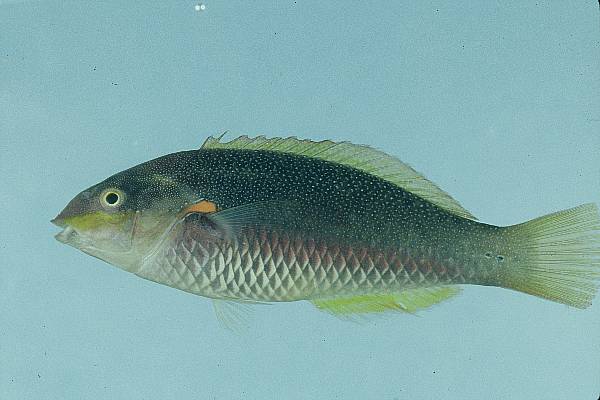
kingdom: Animalia
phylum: Chordata
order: Perciformes
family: Labridae
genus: Stethojulis
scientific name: Stethojulis albovittata
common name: Bluelined wrasse
